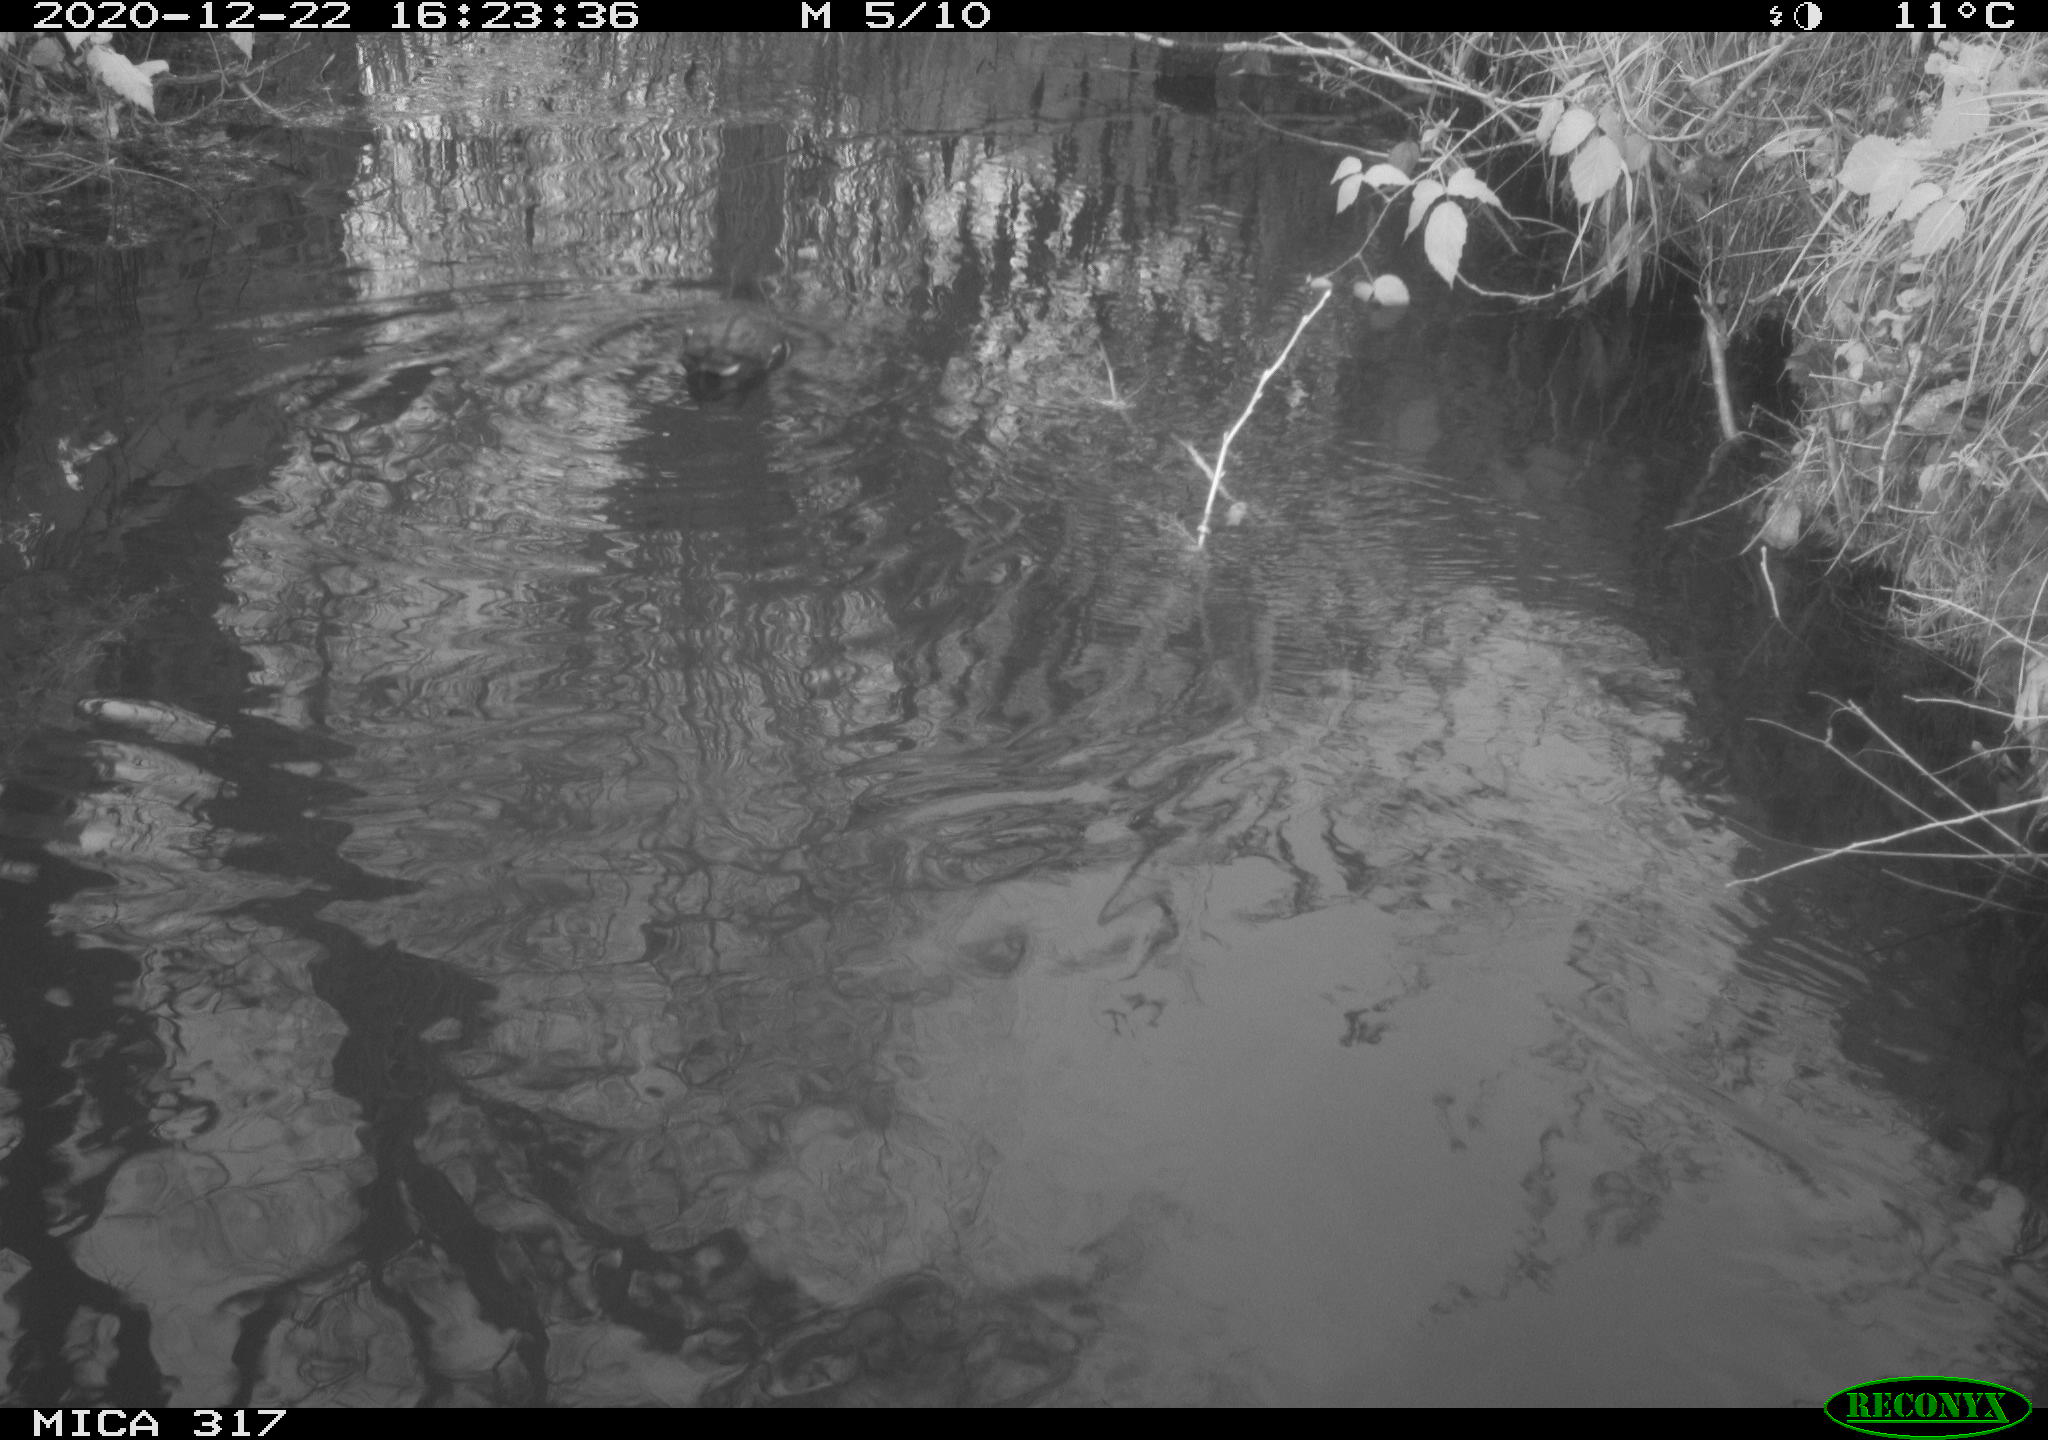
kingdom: Animalia
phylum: Chordata
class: Aves
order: Gruiformes
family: Rallidae
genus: Gallinula
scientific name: Gallinula chloropus
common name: Common moorhen
